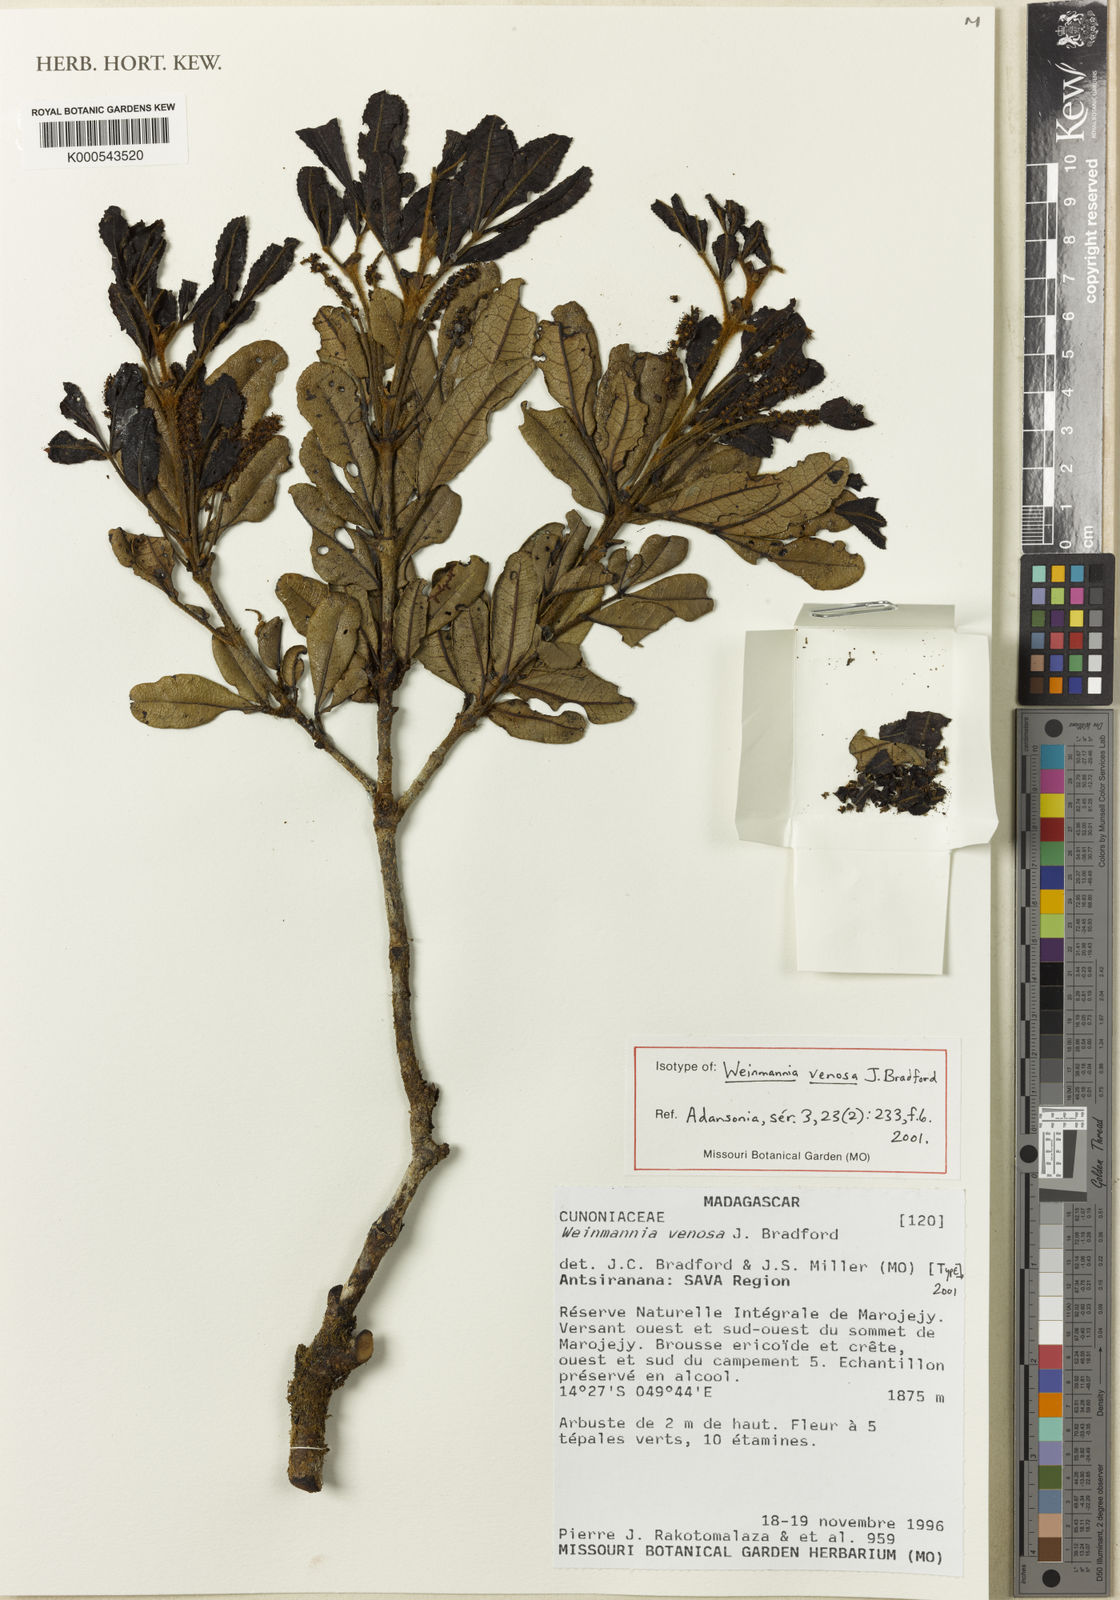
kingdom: Plantae
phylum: Tracheophyta
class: Magnoliopsida
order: Oxalidales
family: Cunoniaceae
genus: Pterophylla
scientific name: Pterophylla bernardii
